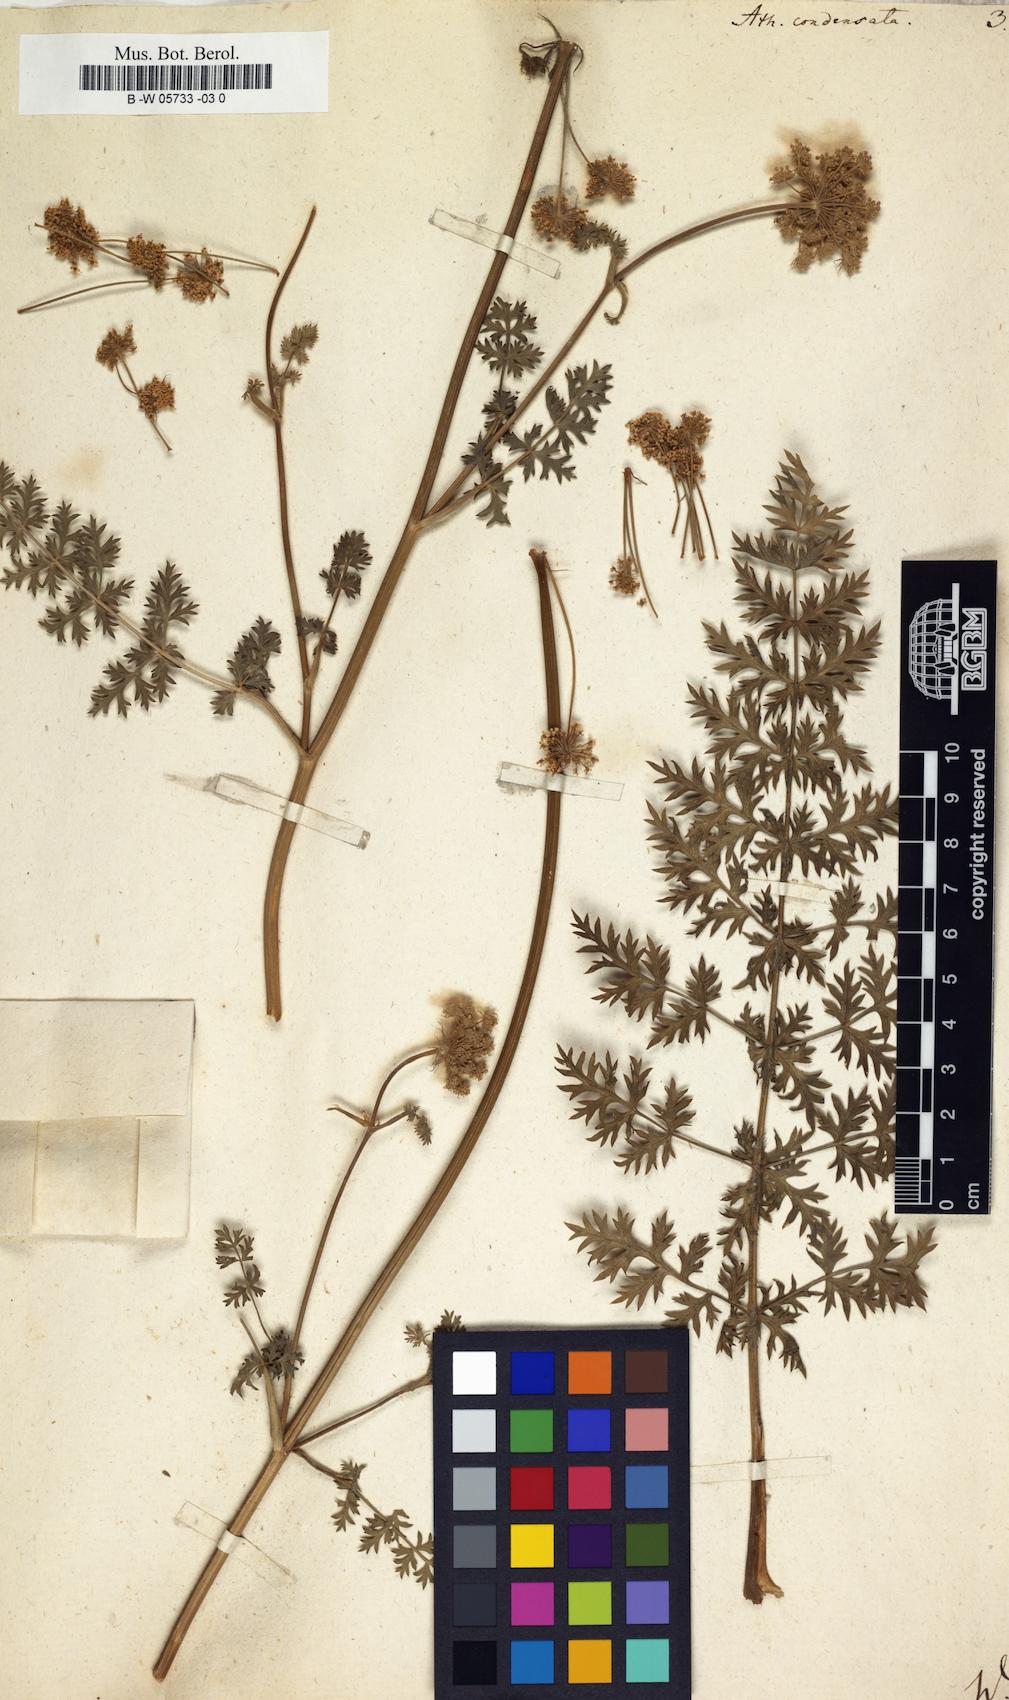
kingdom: Plantae
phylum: Tracheophyta
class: Magnoliopsida
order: Apiales
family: Apiaceae
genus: Seseli
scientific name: Seseli condensatum
